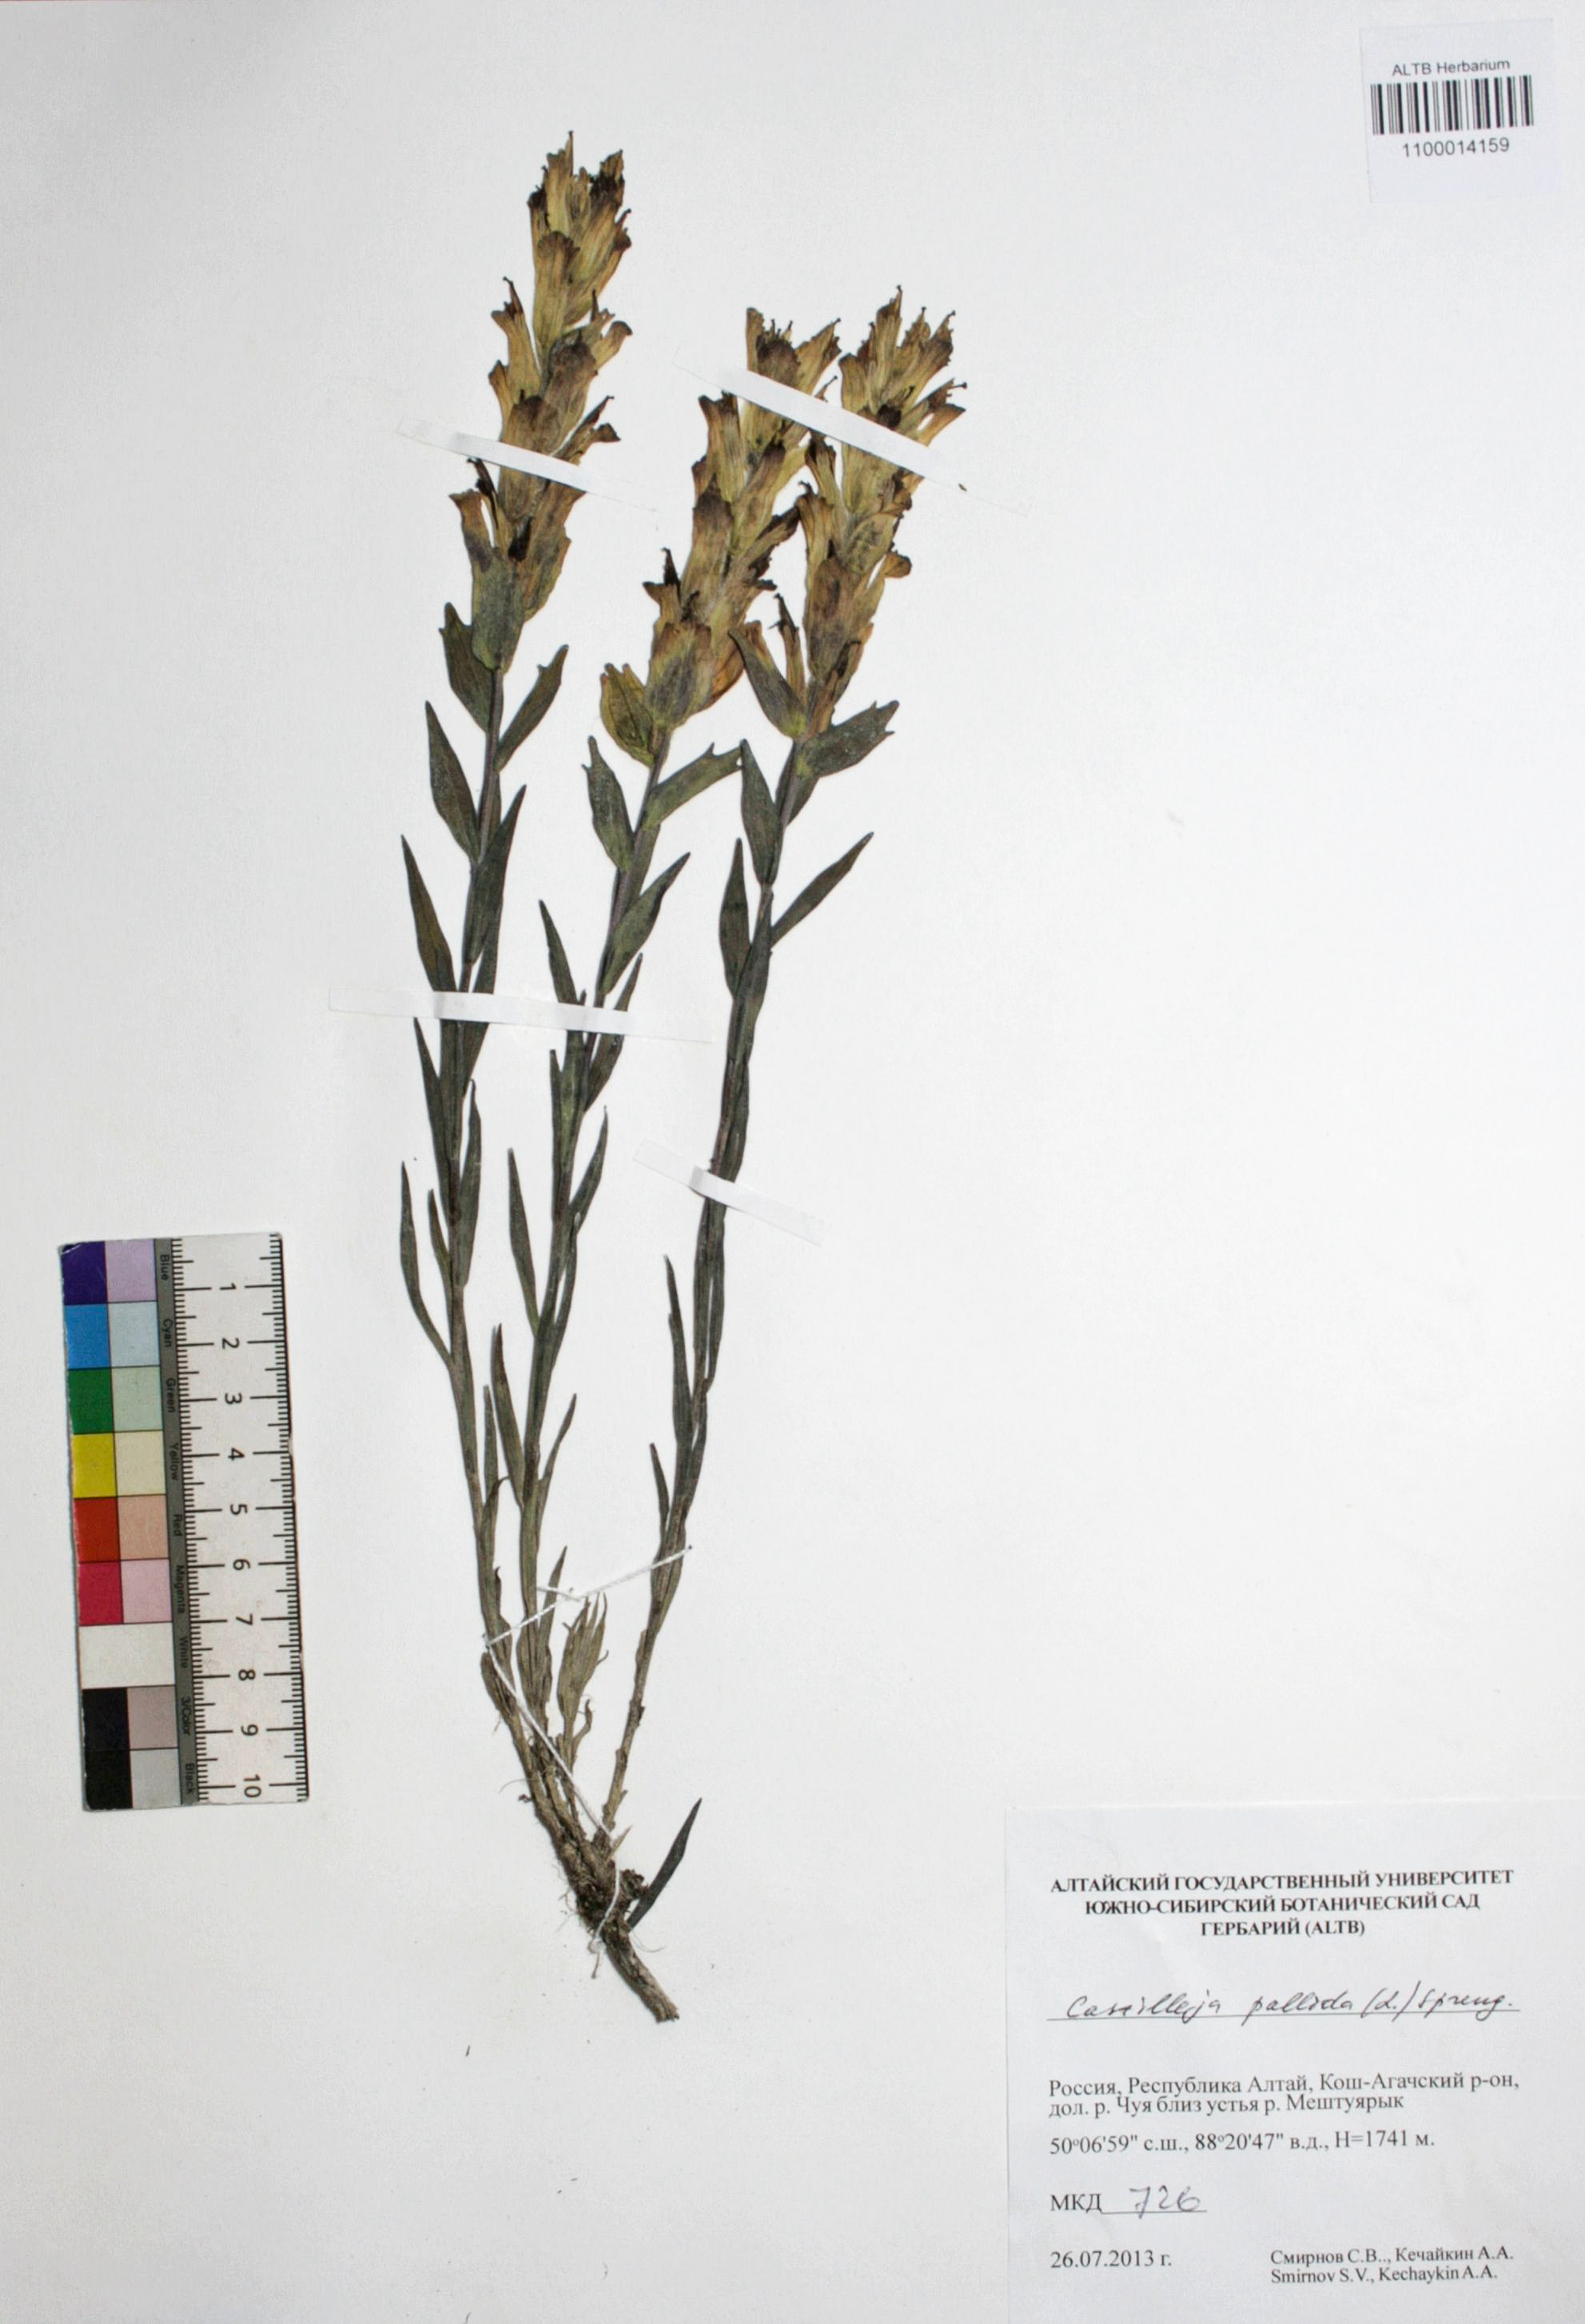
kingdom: Plantae
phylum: Tracheophyta
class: Magnoliopsida
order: Lamiales
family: Orobanchaceae
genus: Castilleja
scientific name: Castilleja pallida
